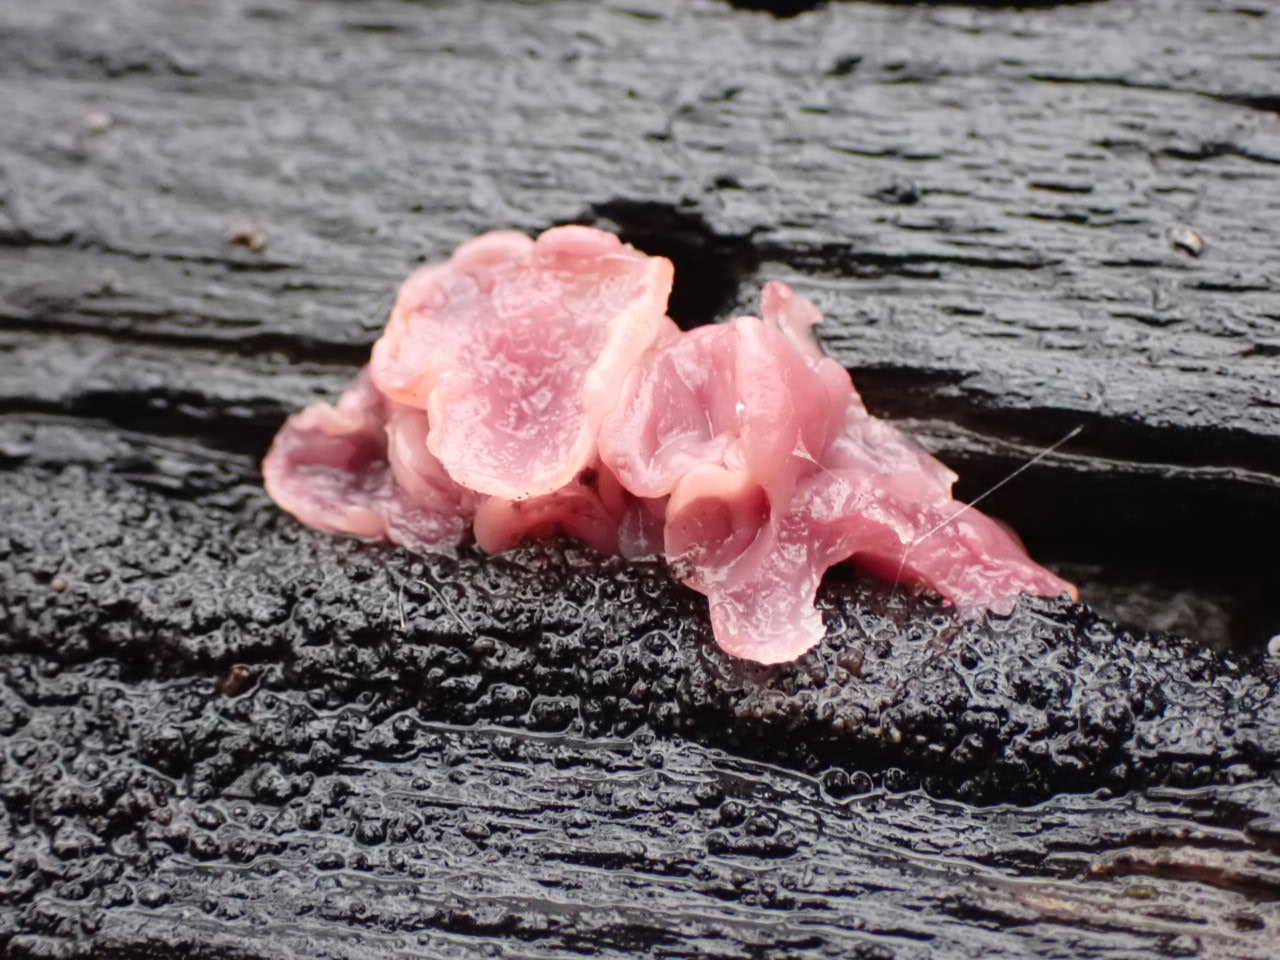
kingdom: Fungi
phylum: Ascomycota
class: Leotiomycetes
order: Helotiales
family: Gelatinodiscaceae
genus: Ascocoryne
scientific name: Ascocoryne
